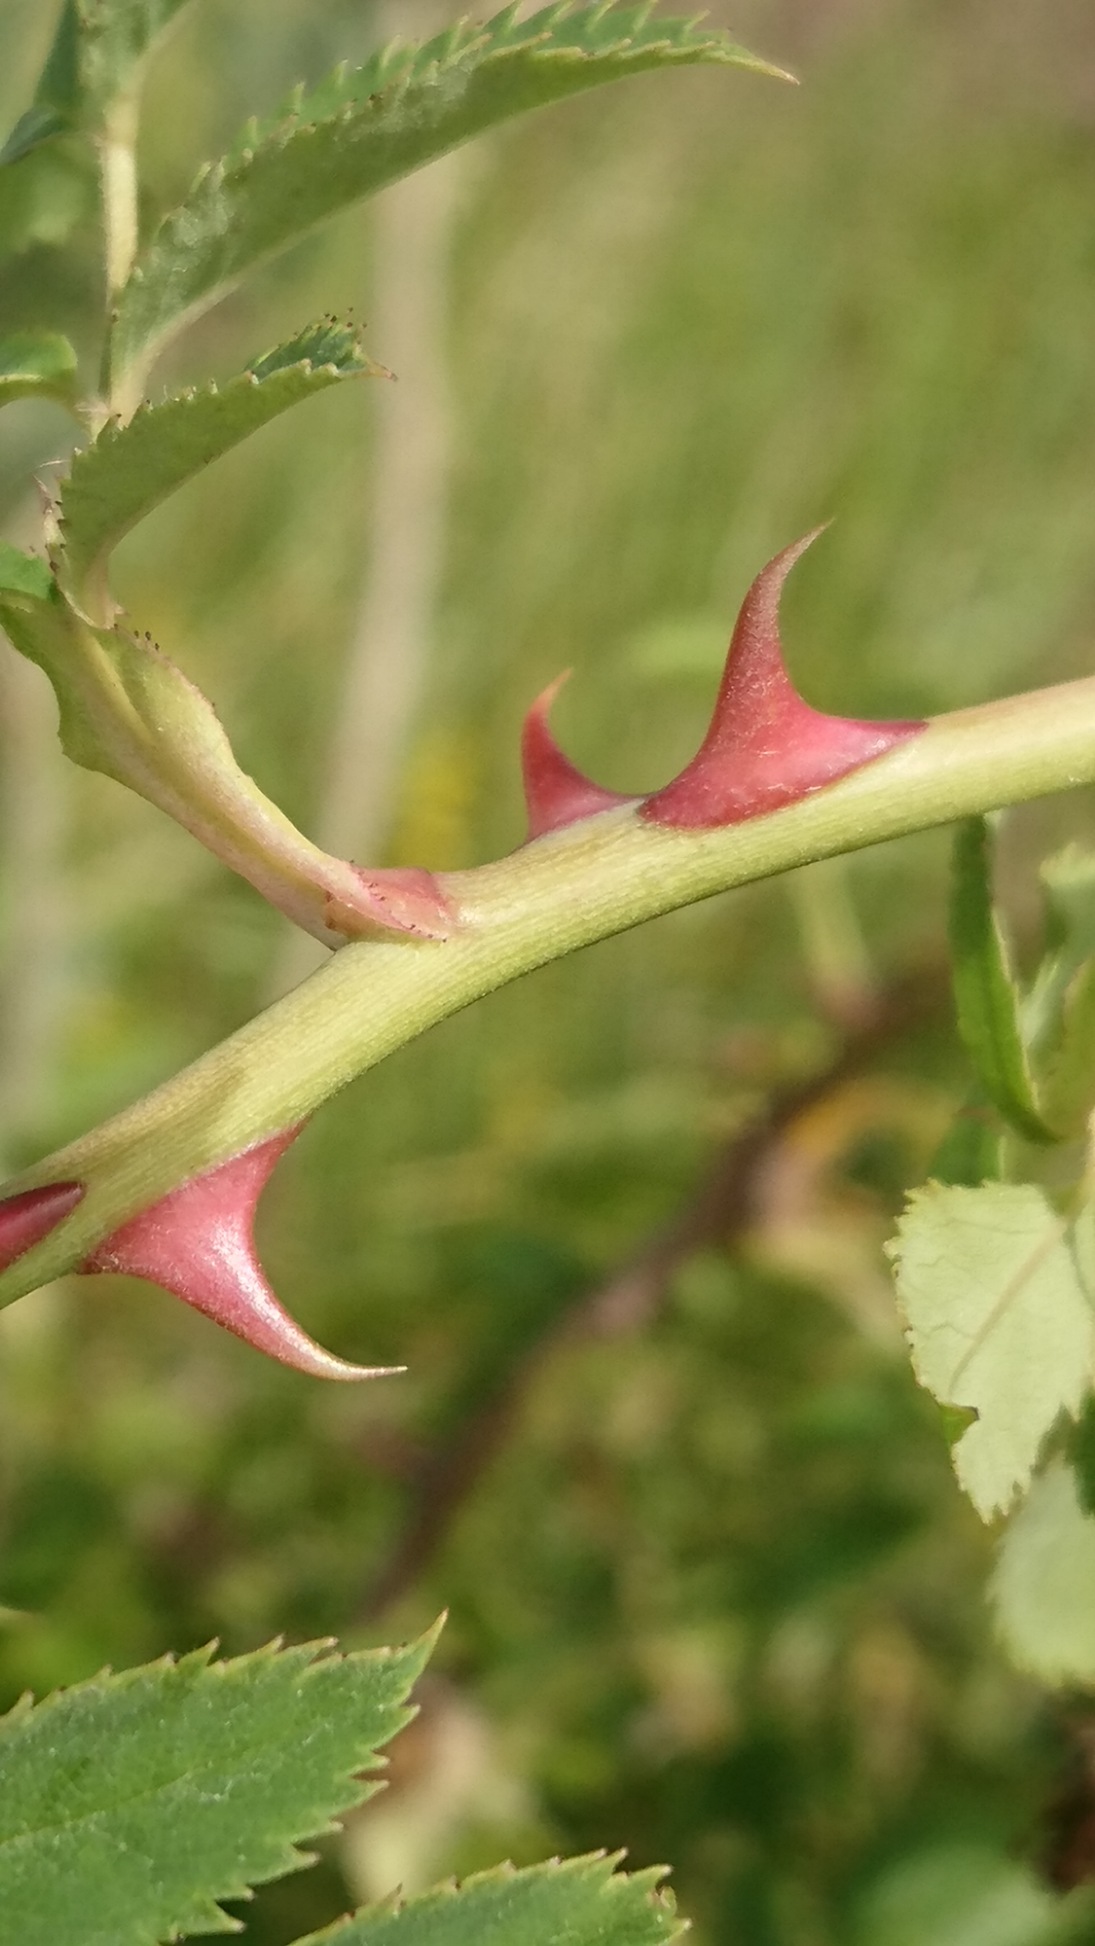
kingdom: Plantae
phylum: Tracheophyta
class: Magnoliopsida
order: Rosales
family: Rosaceae
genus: Rosa
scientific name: Rosa canina
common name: Glat hunde-rose
